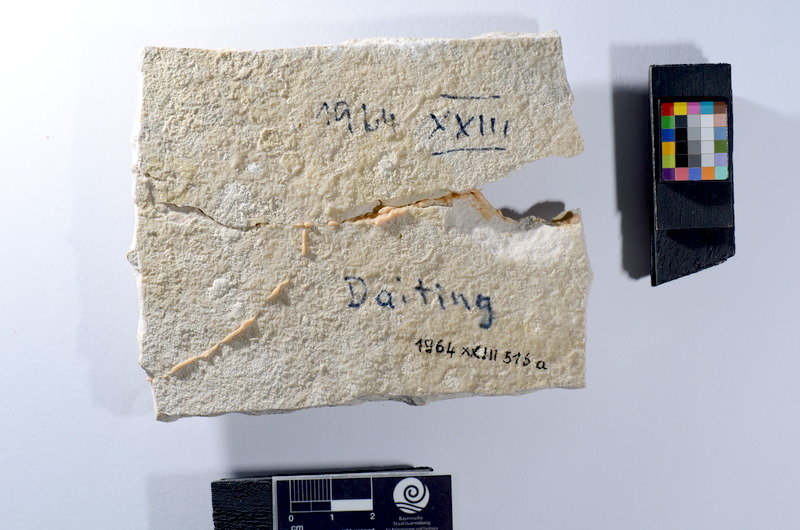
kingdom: Animalia
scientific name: Animalia
